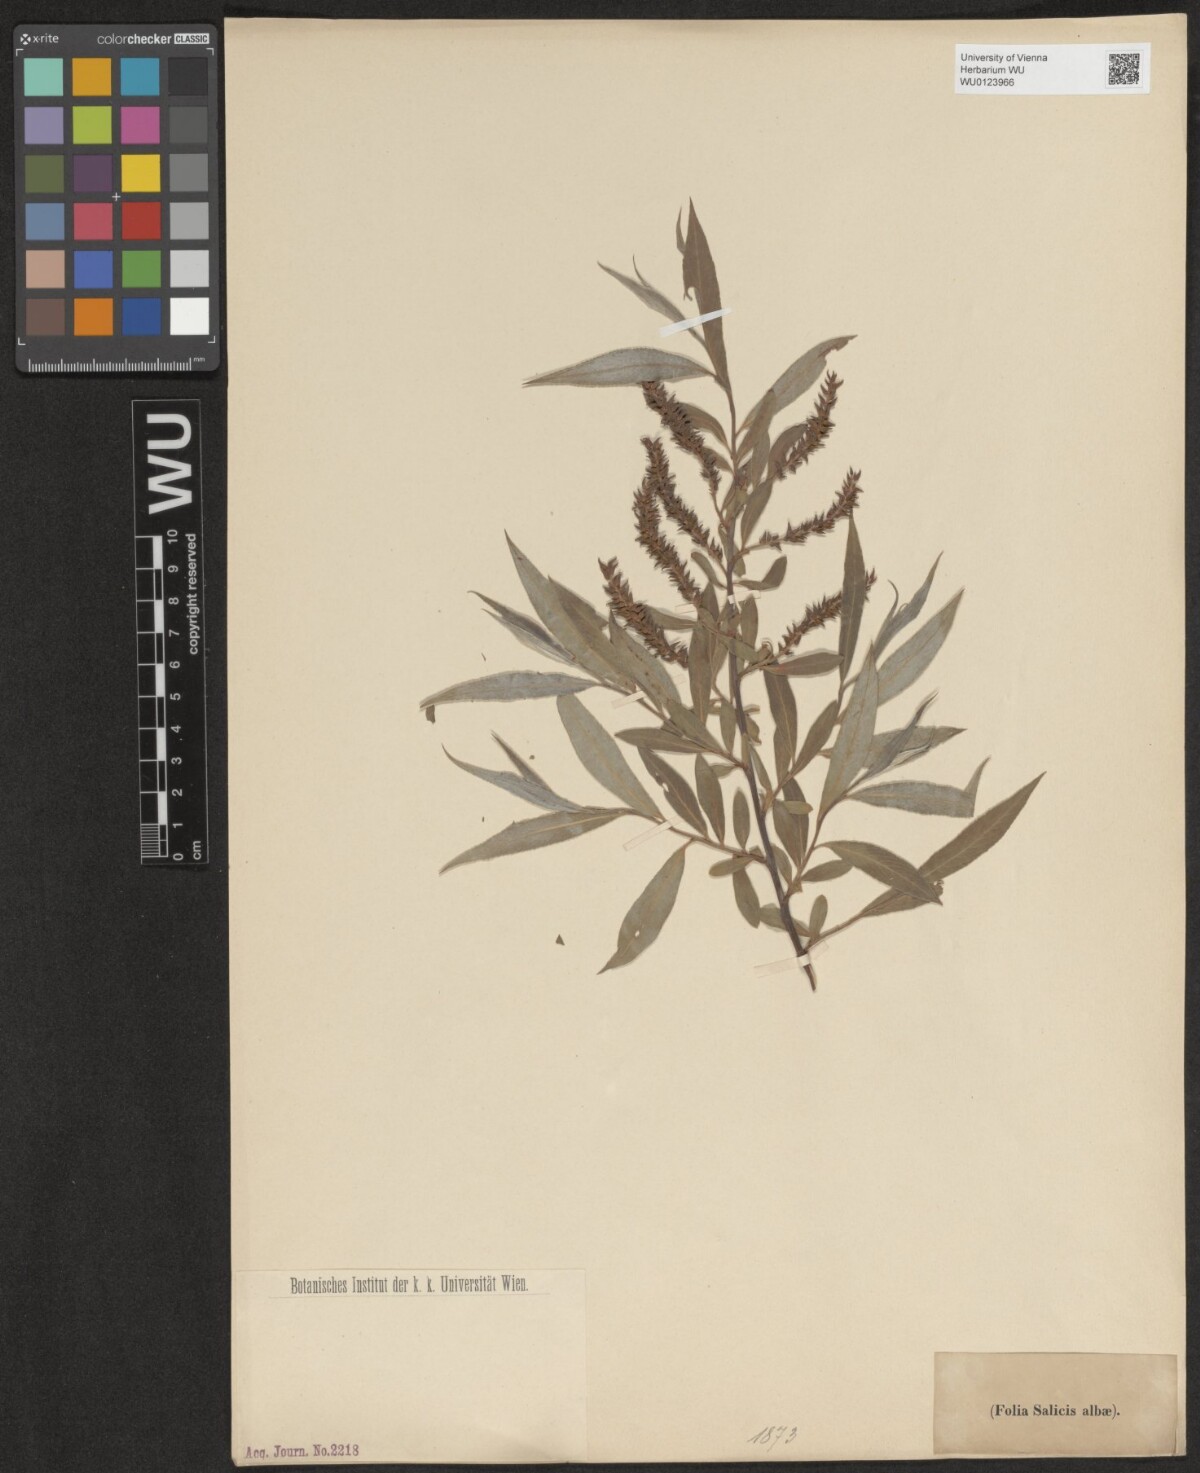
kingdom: Plantae
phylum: Tracheophyta
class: Magnoliopsida
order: Malpighiales
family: Salicaceae
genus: Salix
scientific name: Salix alba
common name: White willow
